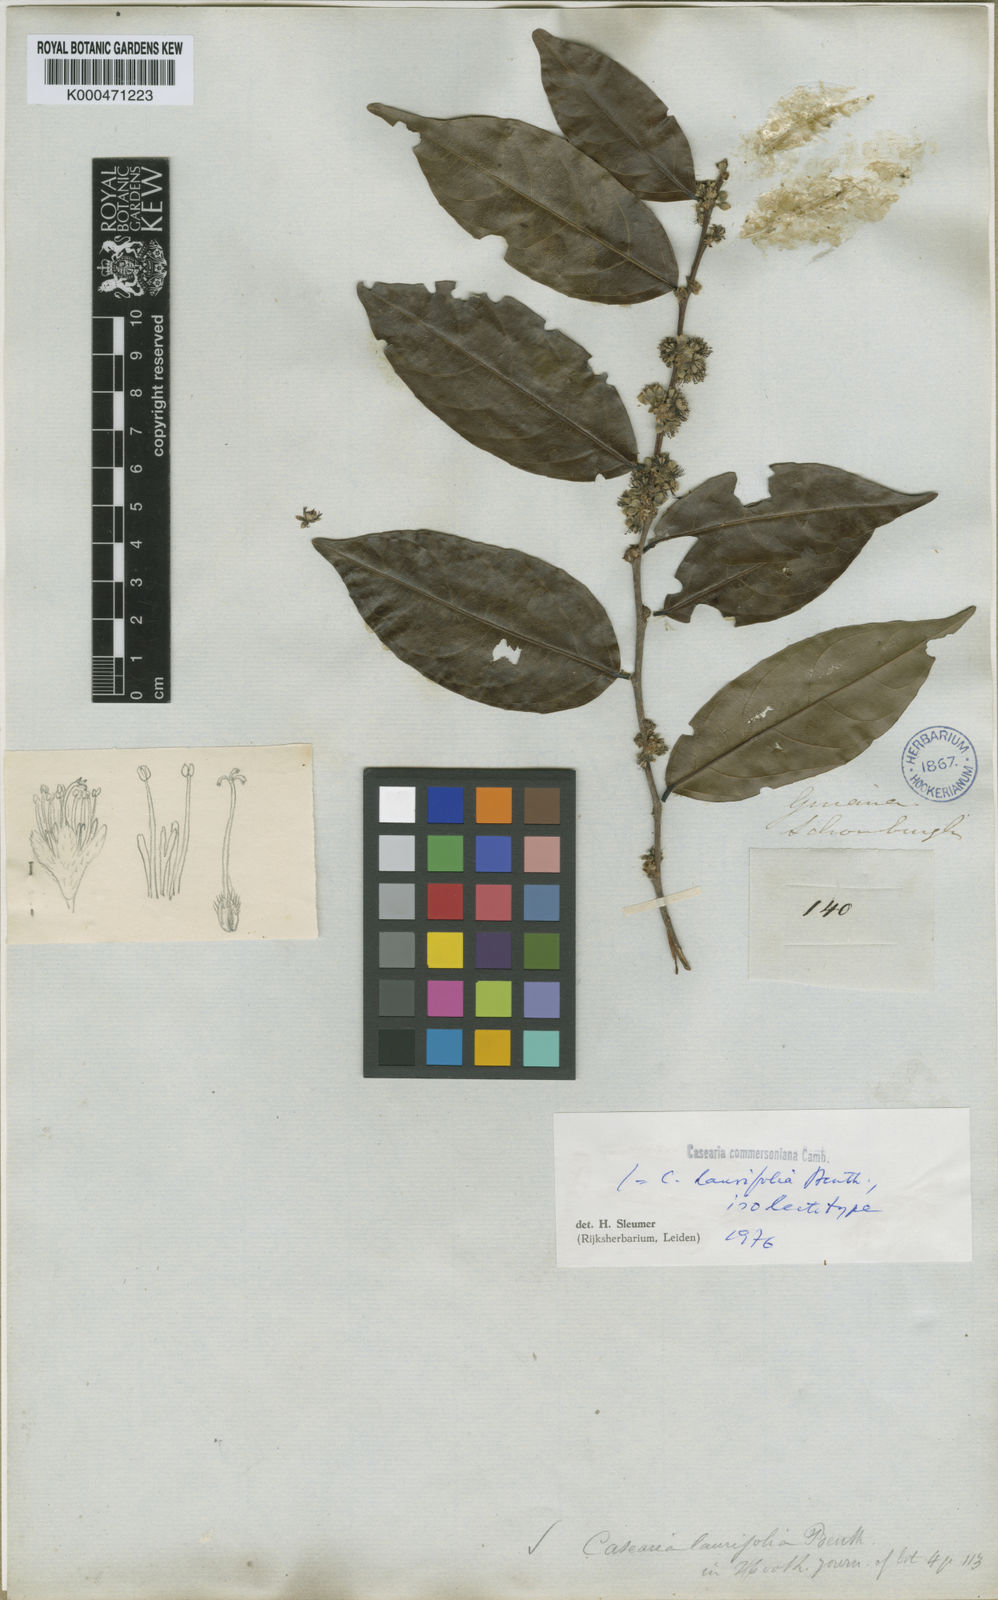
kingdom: Plantae
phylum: Tracheophyta
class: Magnoliopsida
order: Malpighiales
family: Salicaceae
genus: Piparea
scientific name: Piparea dentata
